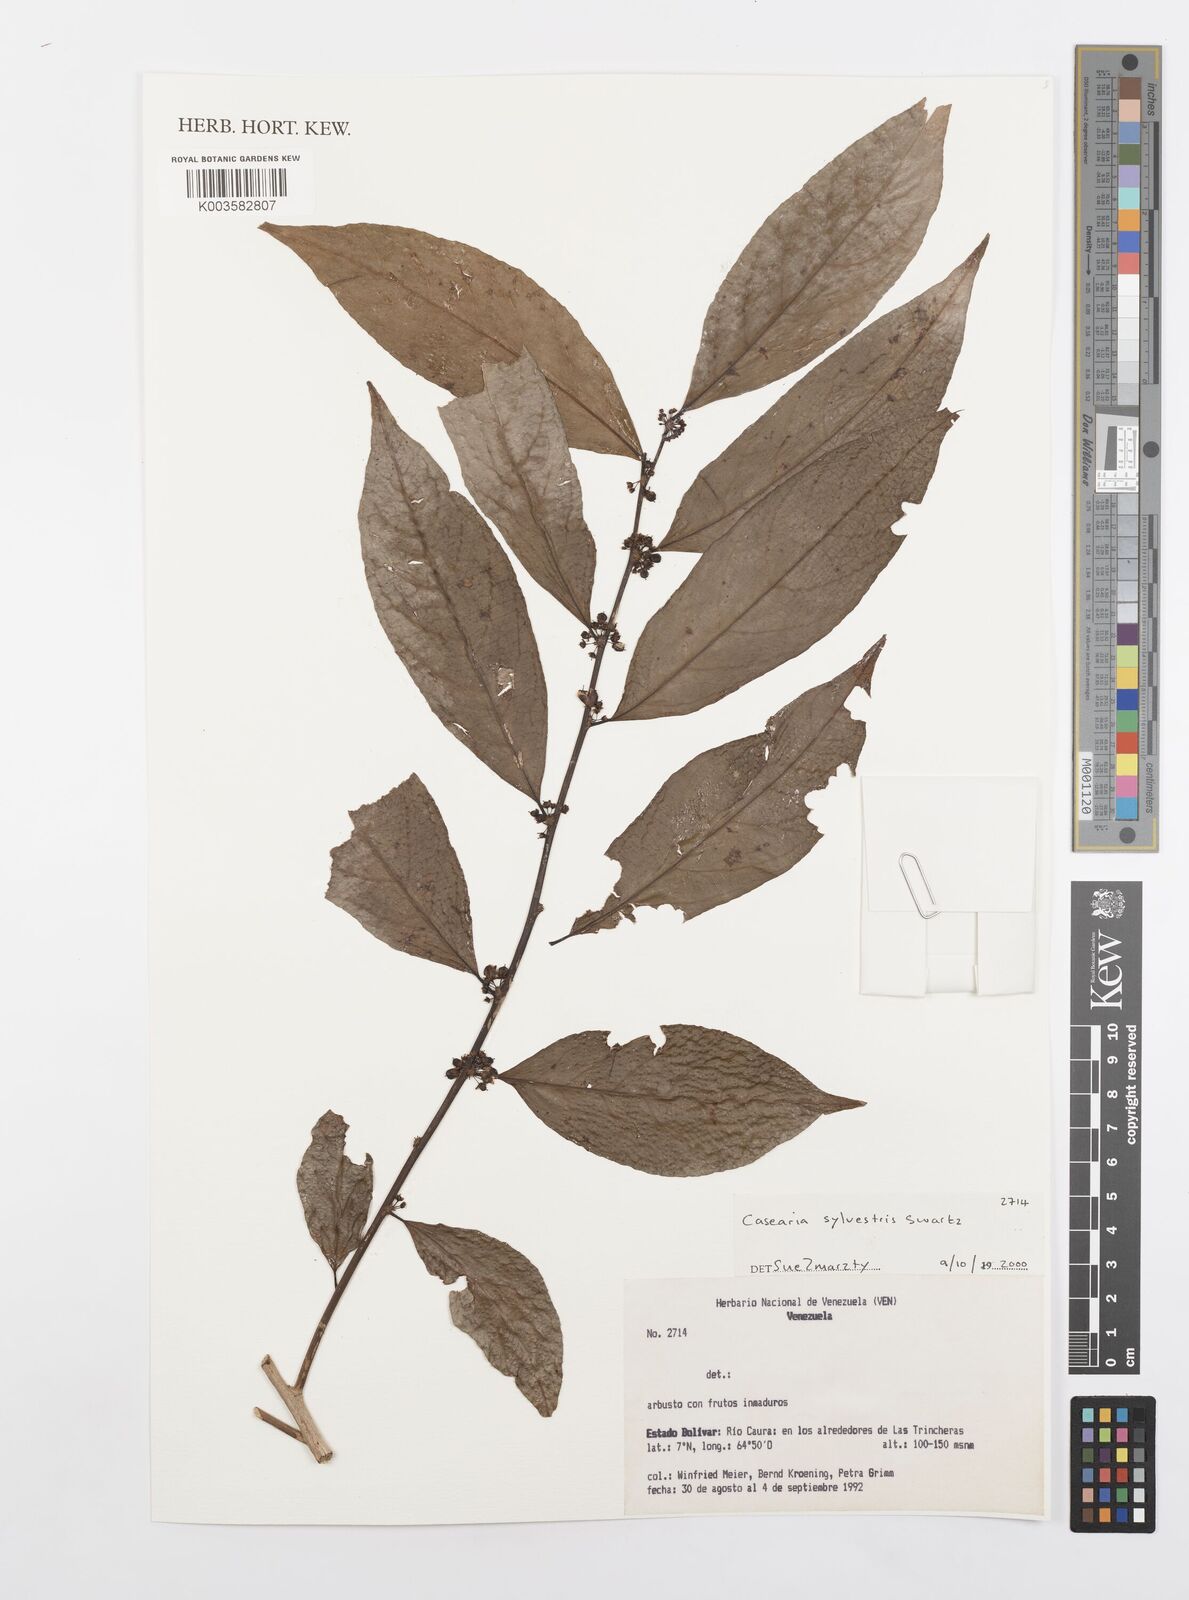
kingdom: Plantae
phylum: Tracheophyta
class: Magnoliopsida
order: Malpighiales
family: Salicaceae
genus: Casearia
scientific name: Casearia sylvestris
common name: Wild sage
